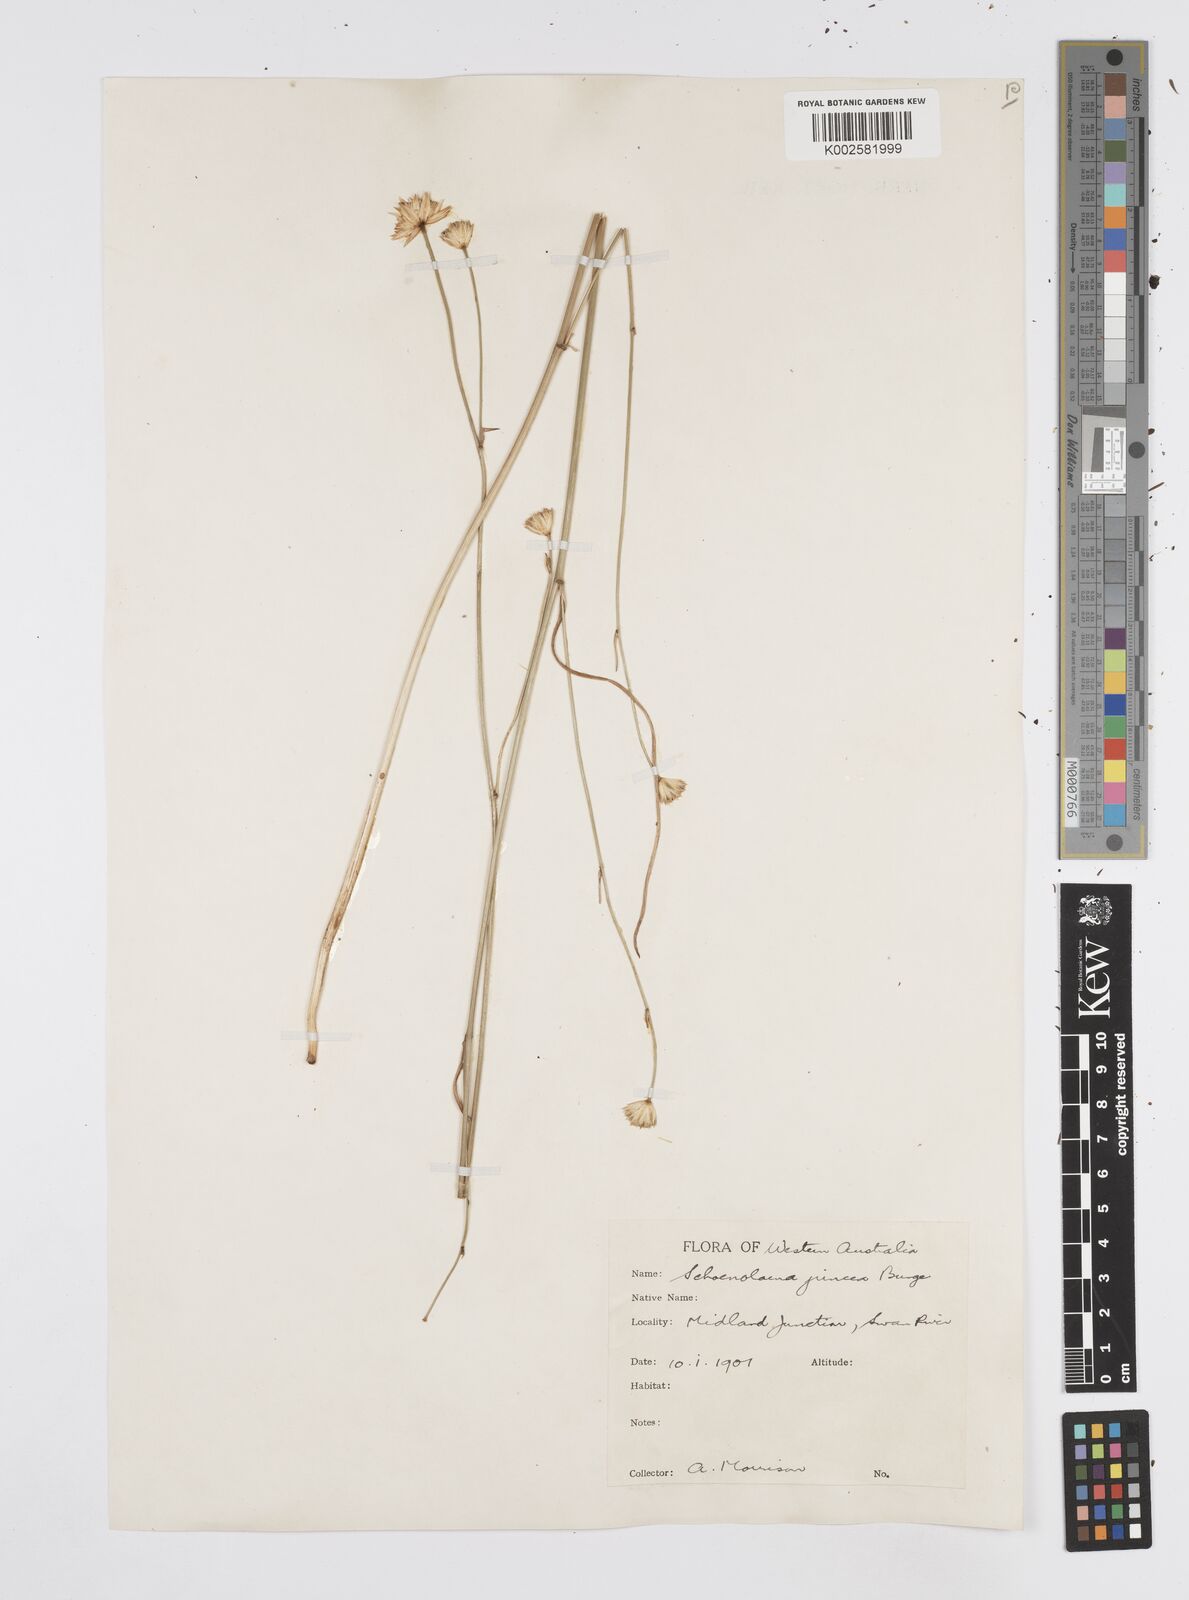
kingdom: Plantae
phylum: Tracheophyta
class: Magnoliopsida
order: Apiales
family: Apiaceae
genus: Schoenolaena
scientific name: Schoenolaena juncea
